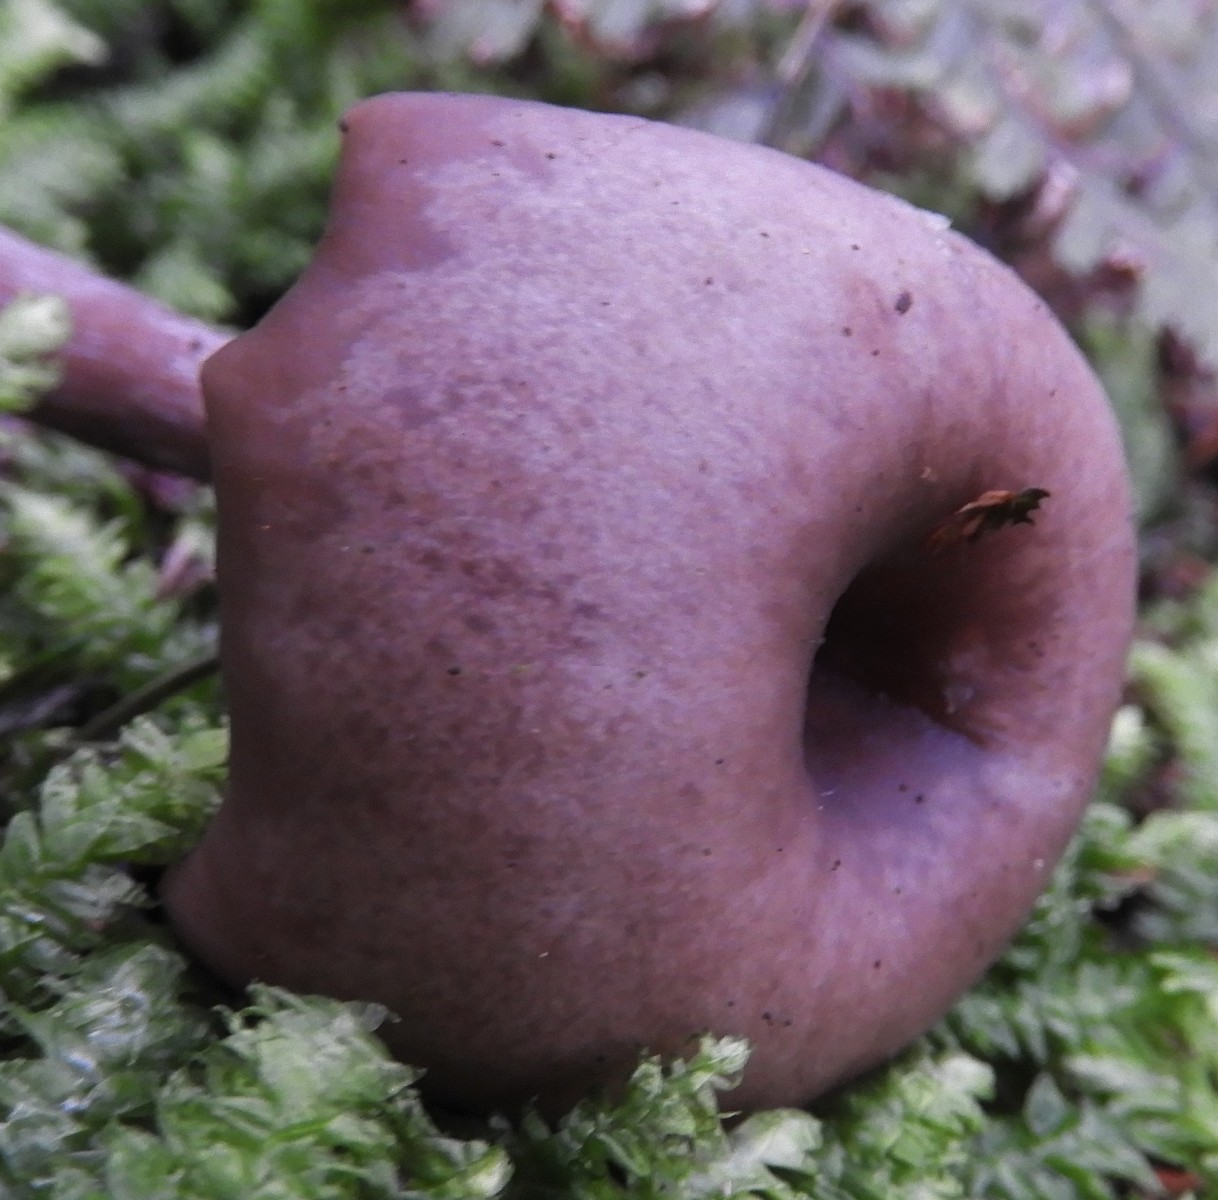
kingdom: Fungi
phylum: Basidiomycota
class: Agaricomycetes
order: Agaricales
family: Pseudoclitocybaceae
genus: Pseudoclitocybe
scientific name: Pseudoclitocybe cyathiformis
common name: almindelig bægertragthat
